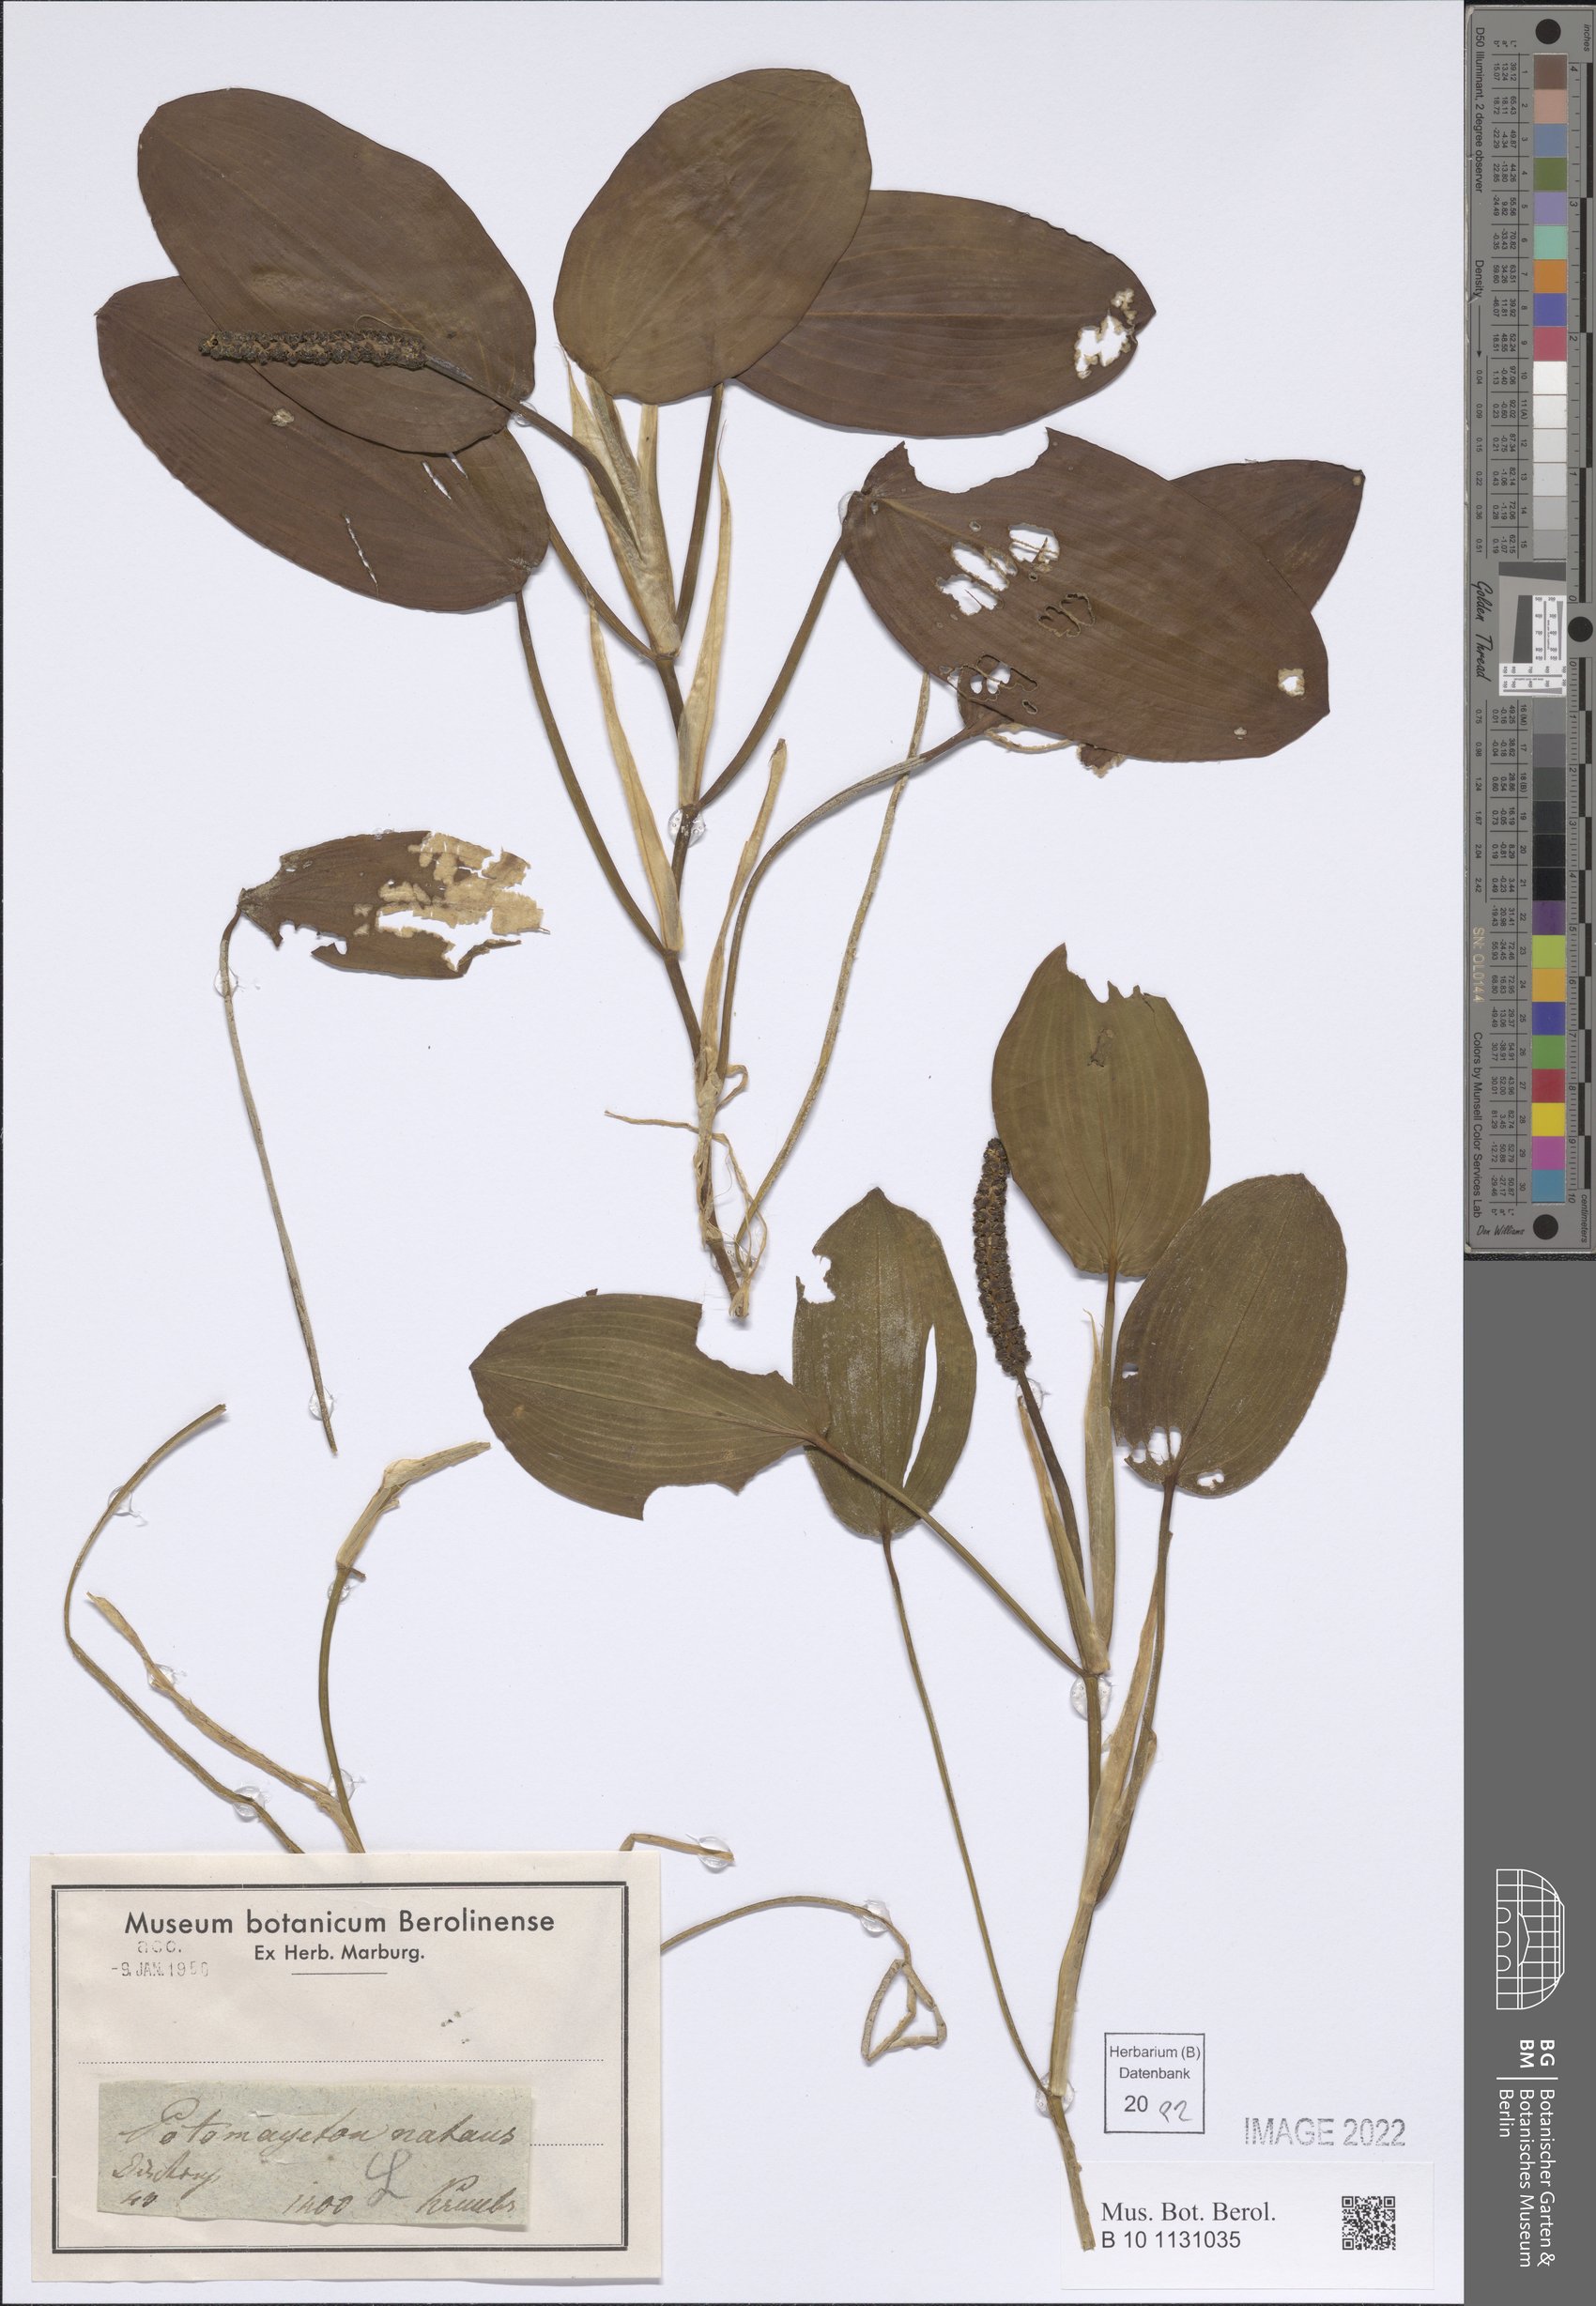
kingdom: Plantae
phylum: Tracheophyta
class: Liliopsida
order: Alismatales
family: Potamogetonaceae
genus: Potamogeton
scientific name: Potamogeton natans
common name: Broad-leaved pondweed
